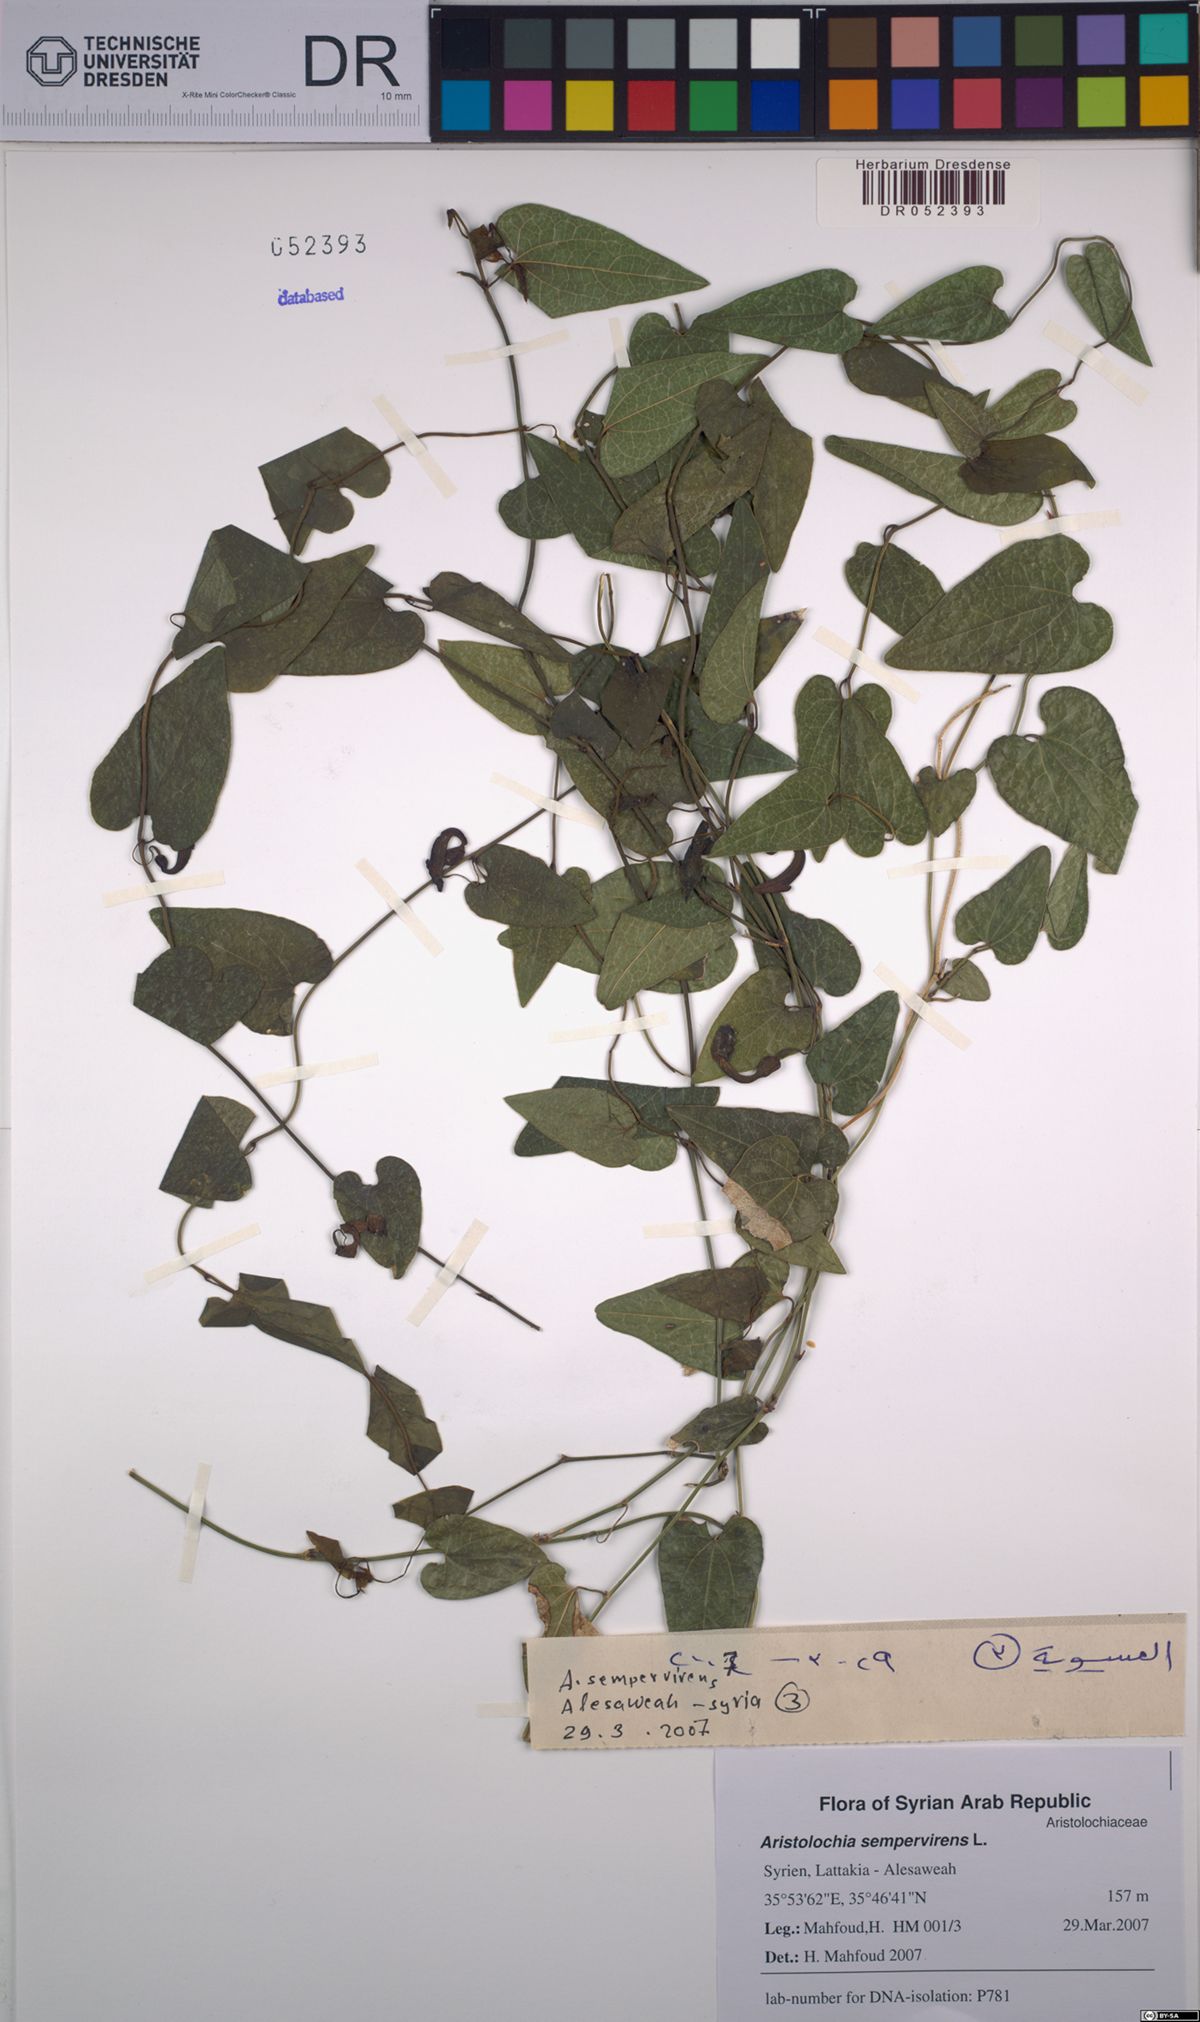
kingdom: Plantae
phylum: Tracheophyta
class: Magnoliopsida
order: Piperales
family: Aristolochiaceae
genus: Aristolochia
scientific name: Aristolochia sempervirens
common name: Long birthwort
